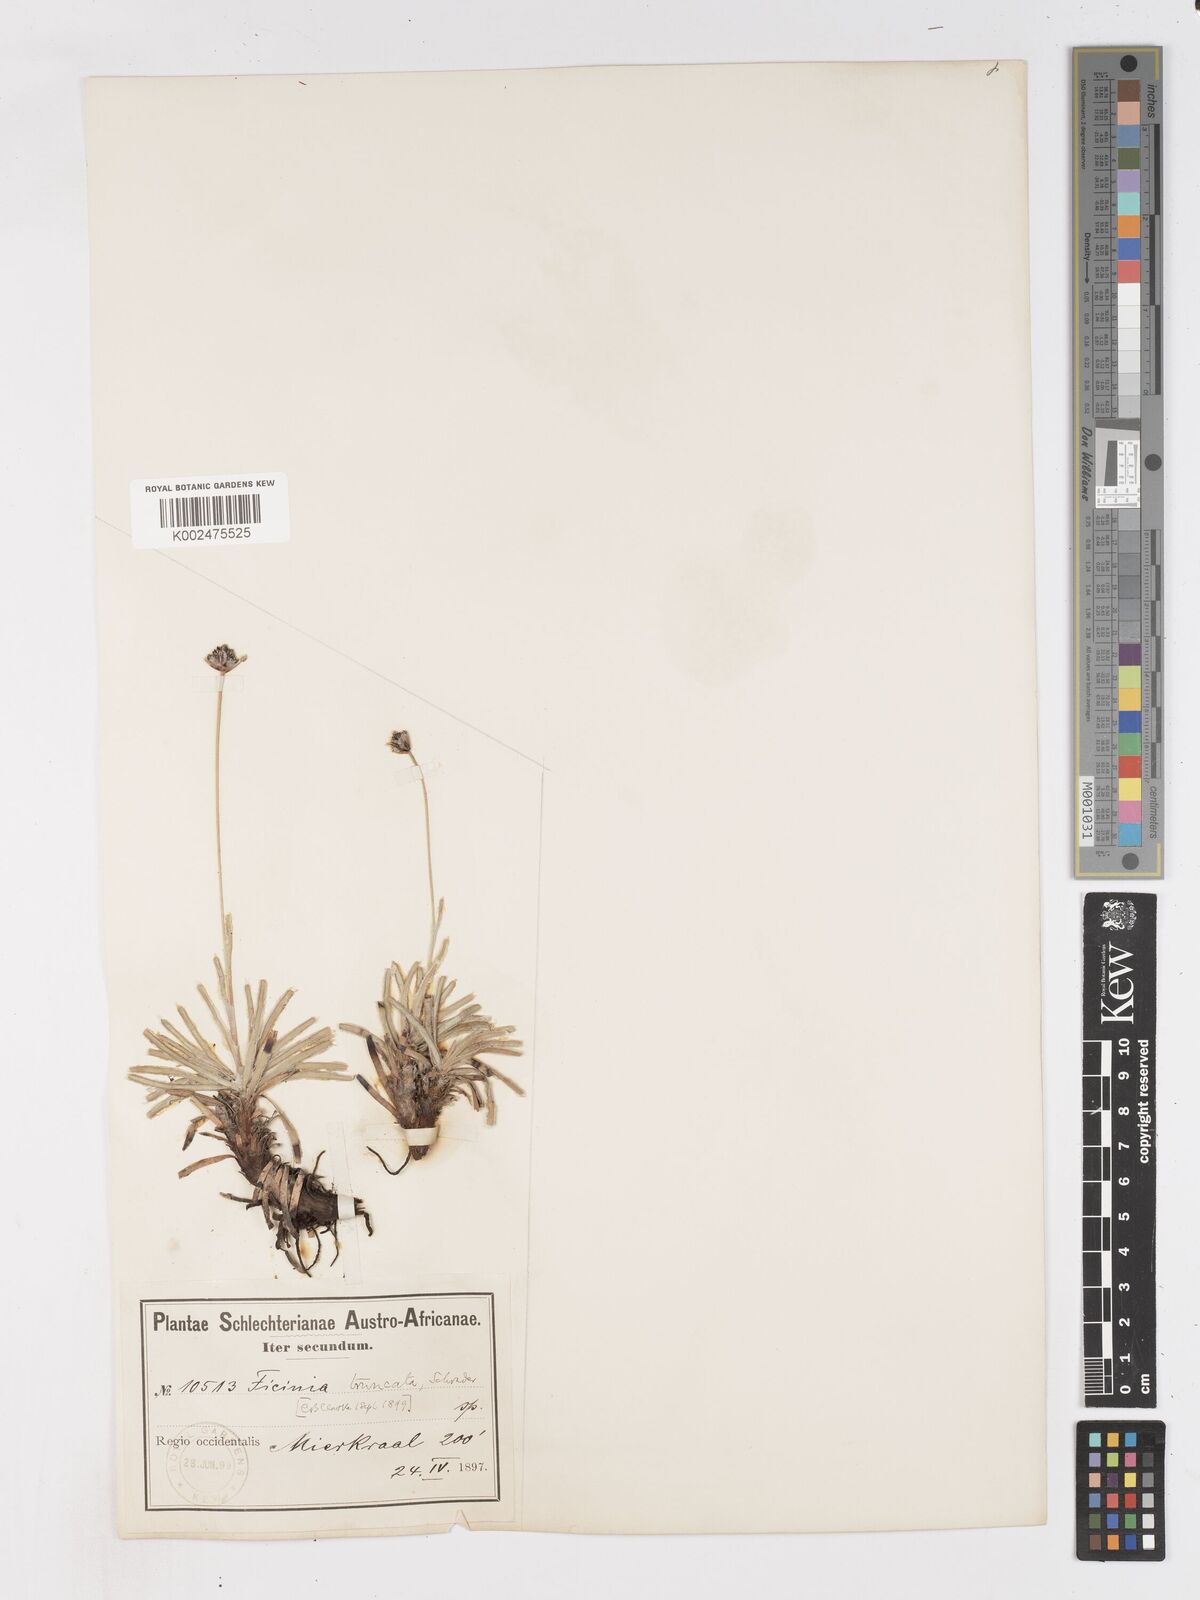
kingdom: Plantae
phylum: Tracheophyta
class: Liliopsida
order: Poales
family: Cyperaceae
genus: Ficinia
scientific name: Ficinia truncata
